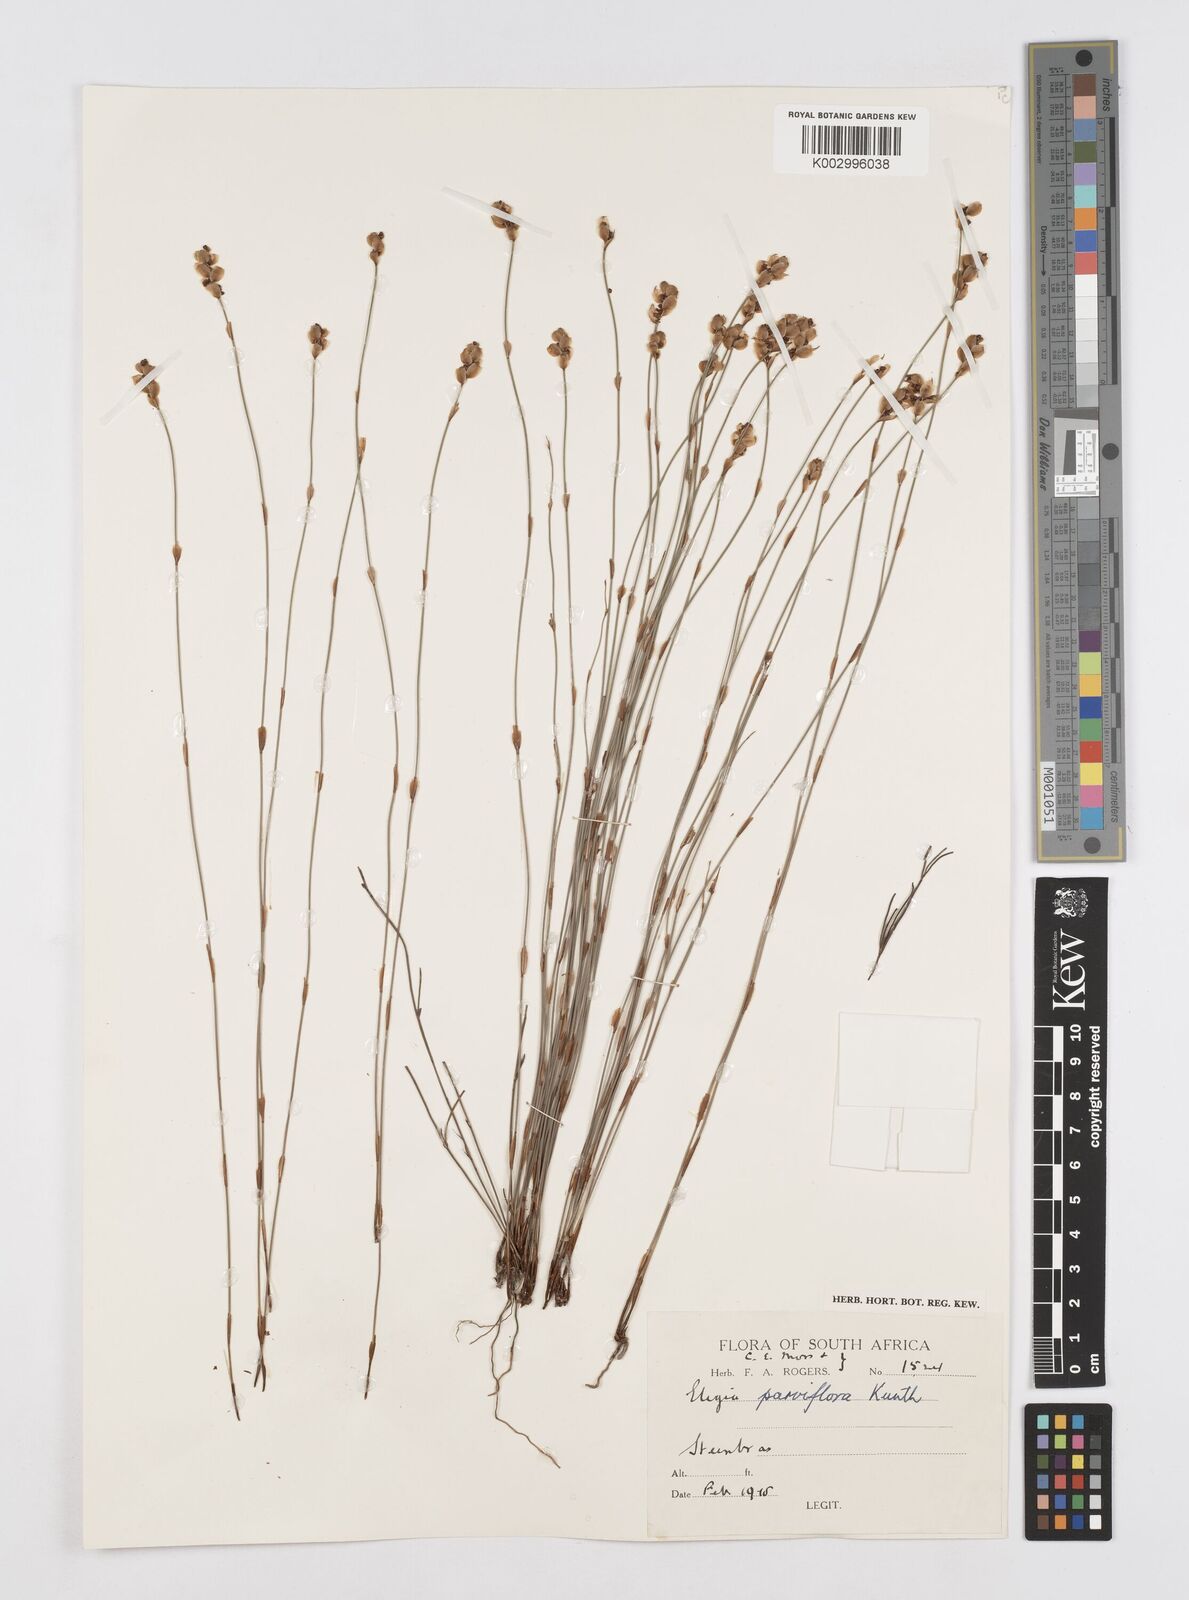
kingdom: Plantae
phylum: Tracheophyta
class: Liliopsida
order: Poales
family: Restionaceae
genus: Cannomois
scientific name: Cannomois parviflora
